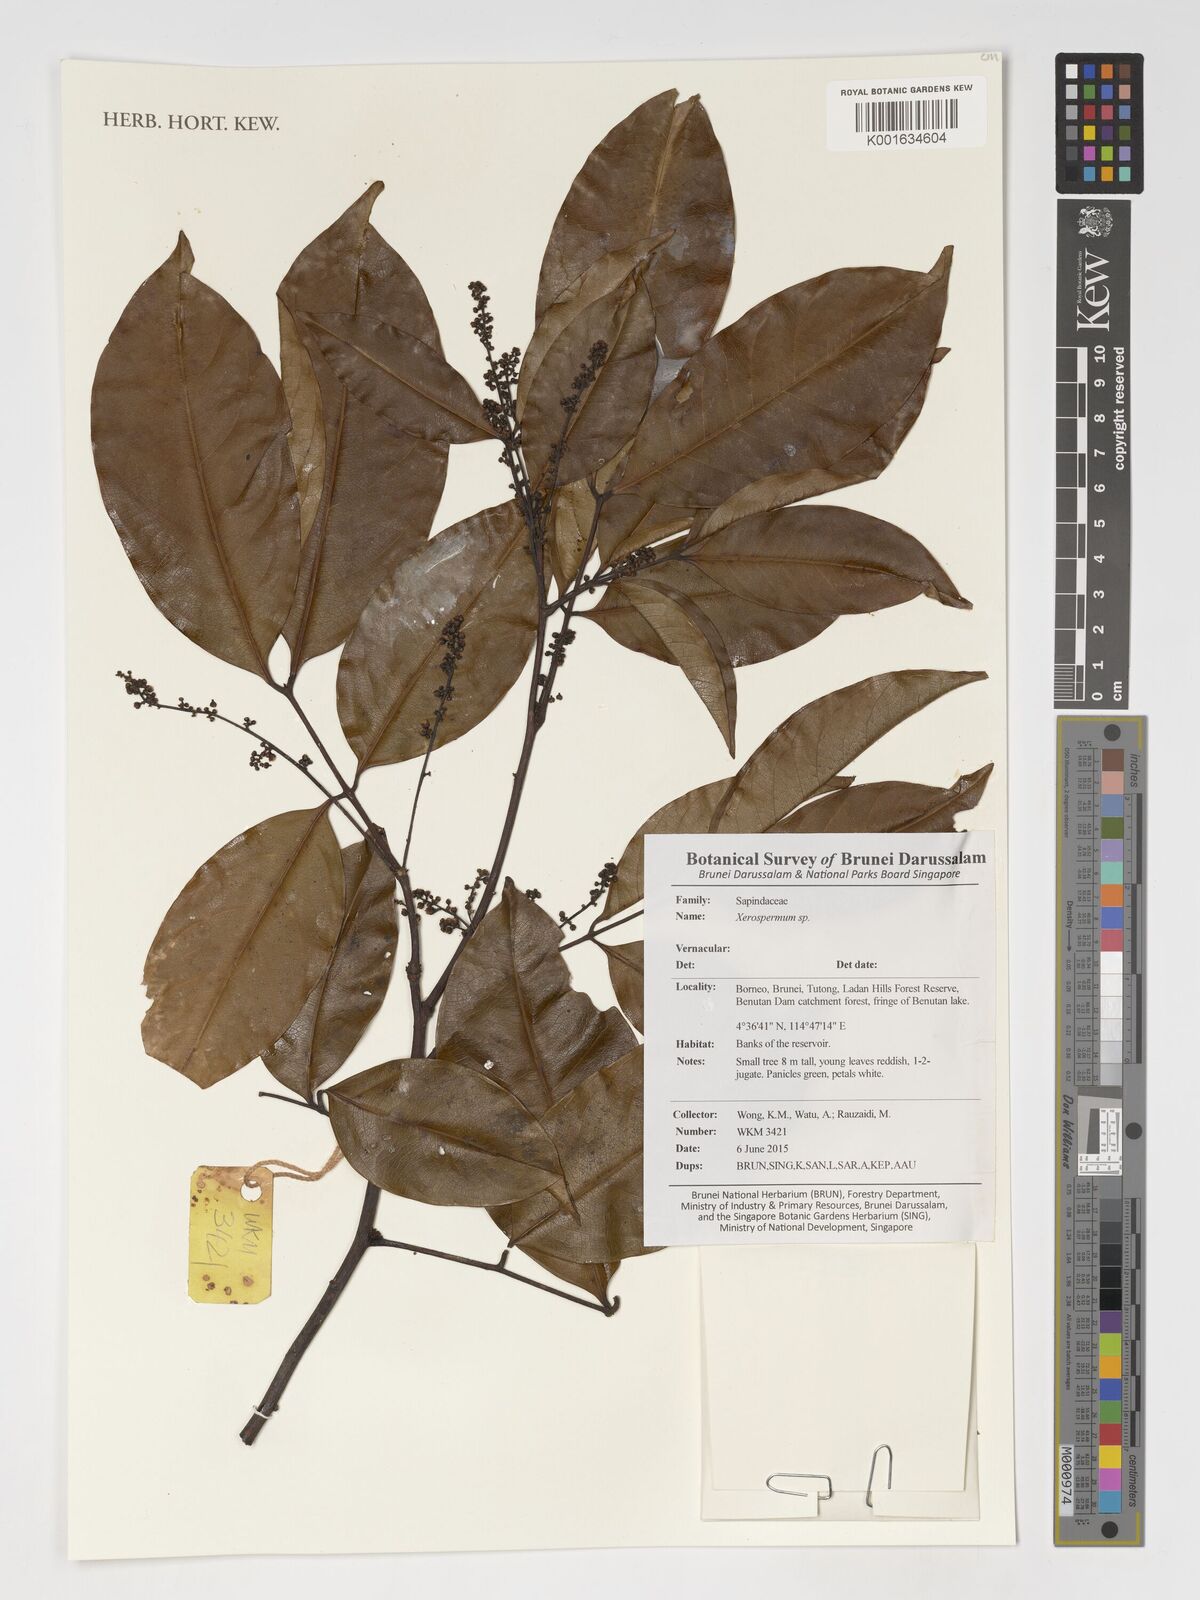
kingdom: Plantae
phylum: Tracheophyta
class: Magnoliopsida
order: Sapindales
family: Sapindaceae
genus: Xerospermum
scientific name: Xerospermum
